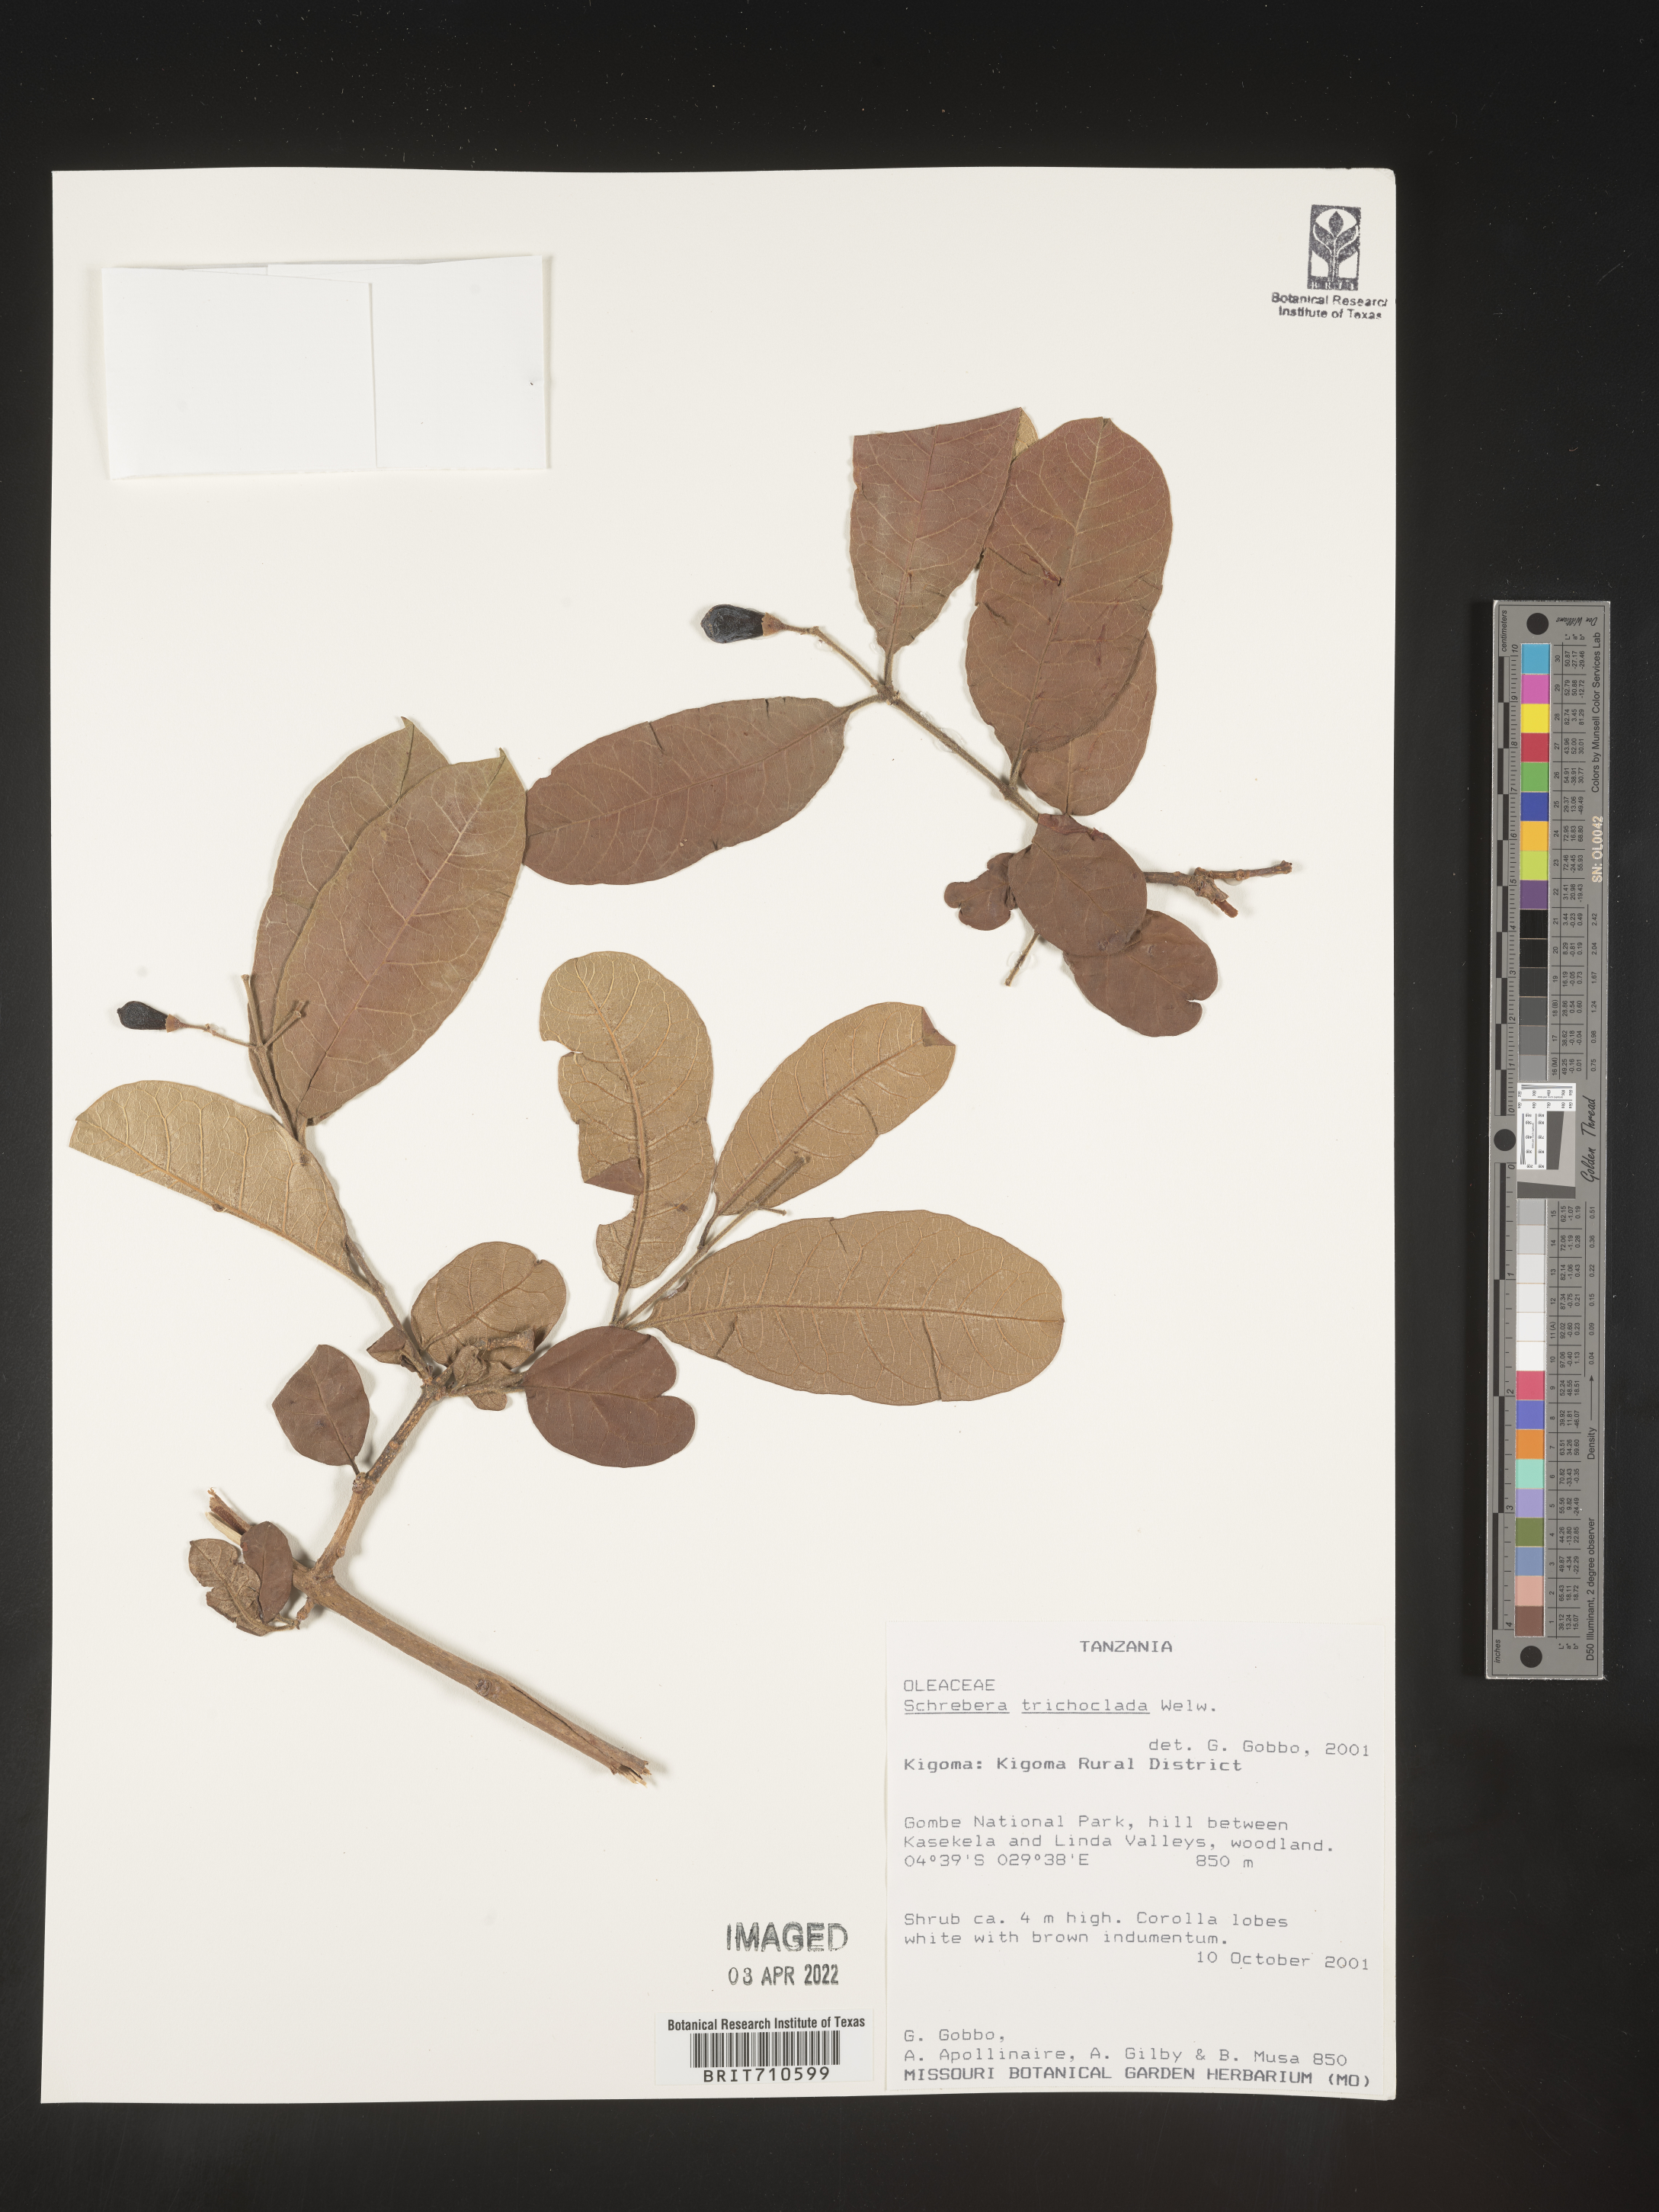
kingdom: Plantae
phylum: Tracheophyta
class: Magnoliopsida
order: Lamiales
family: Oleaceae
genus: Schrebera
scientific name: Schrebera trichoclada
